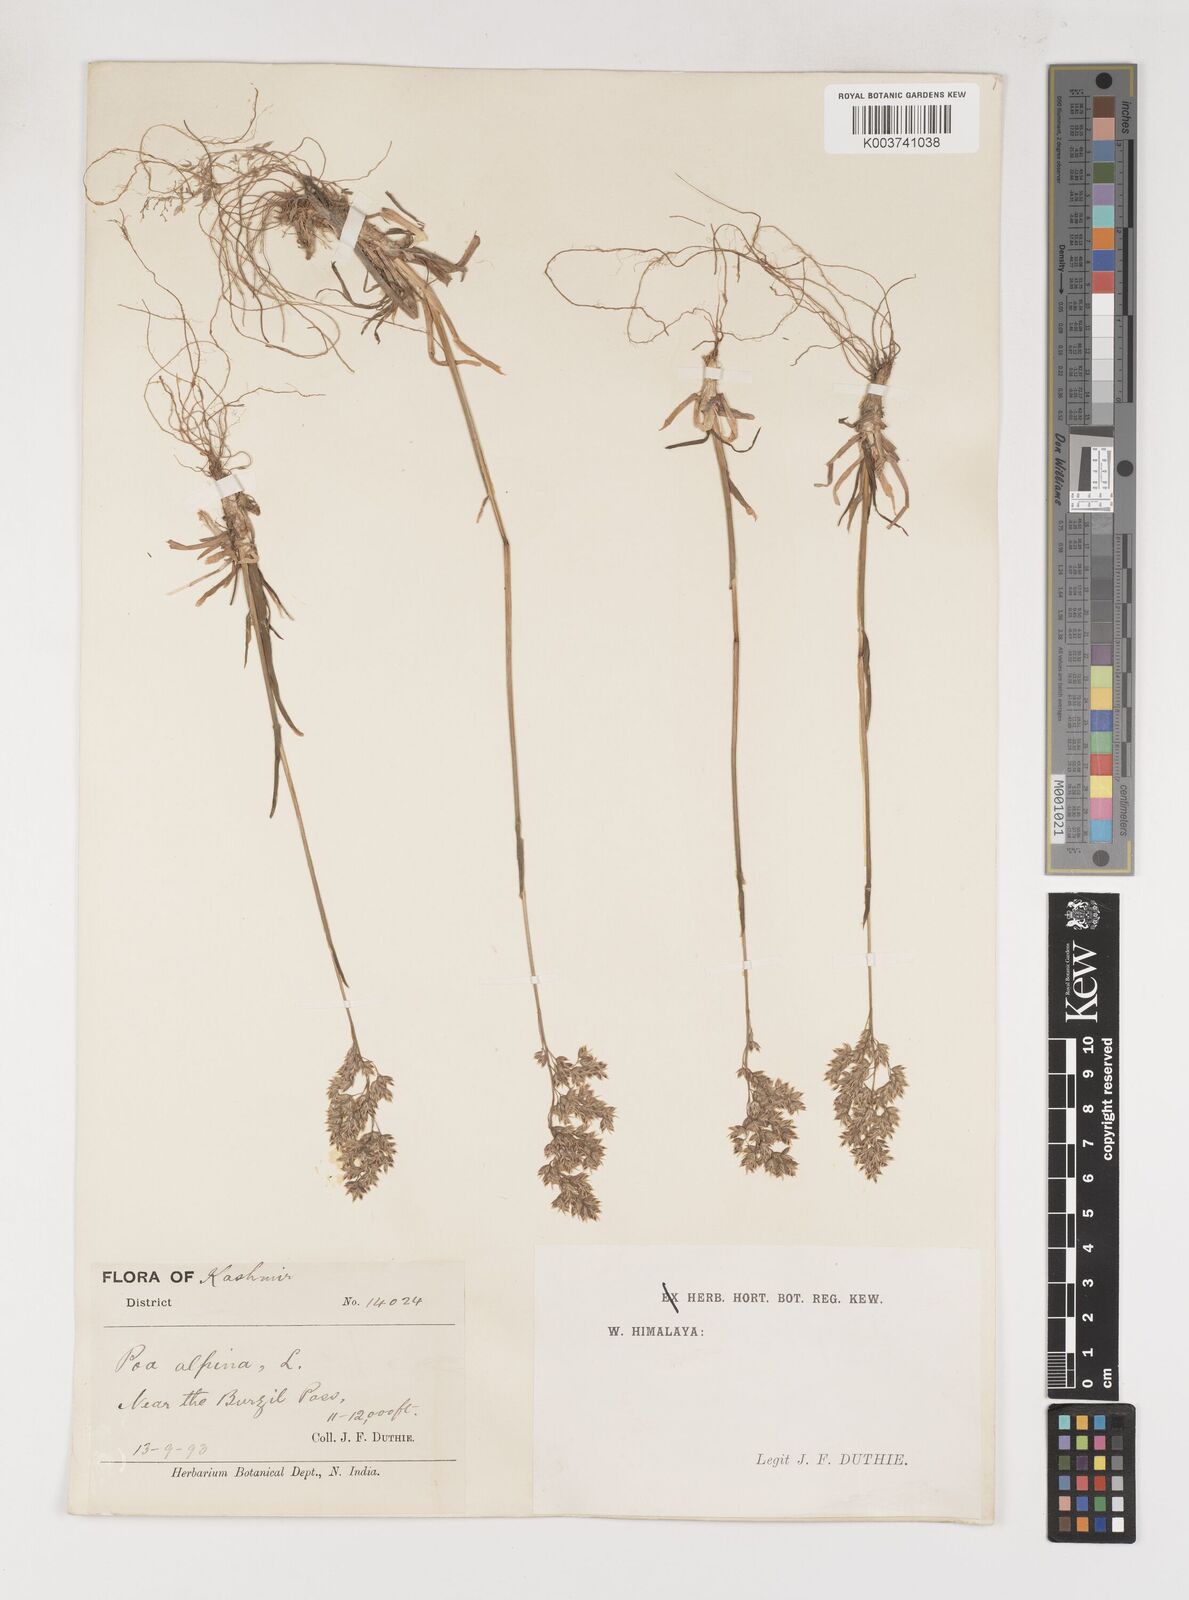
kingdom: Plantae
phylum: Tracheophyta
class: Liliopsida
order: Poales
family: Poaceae
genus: Poa
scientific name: Poa alpina
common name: Alpine bluegrass
